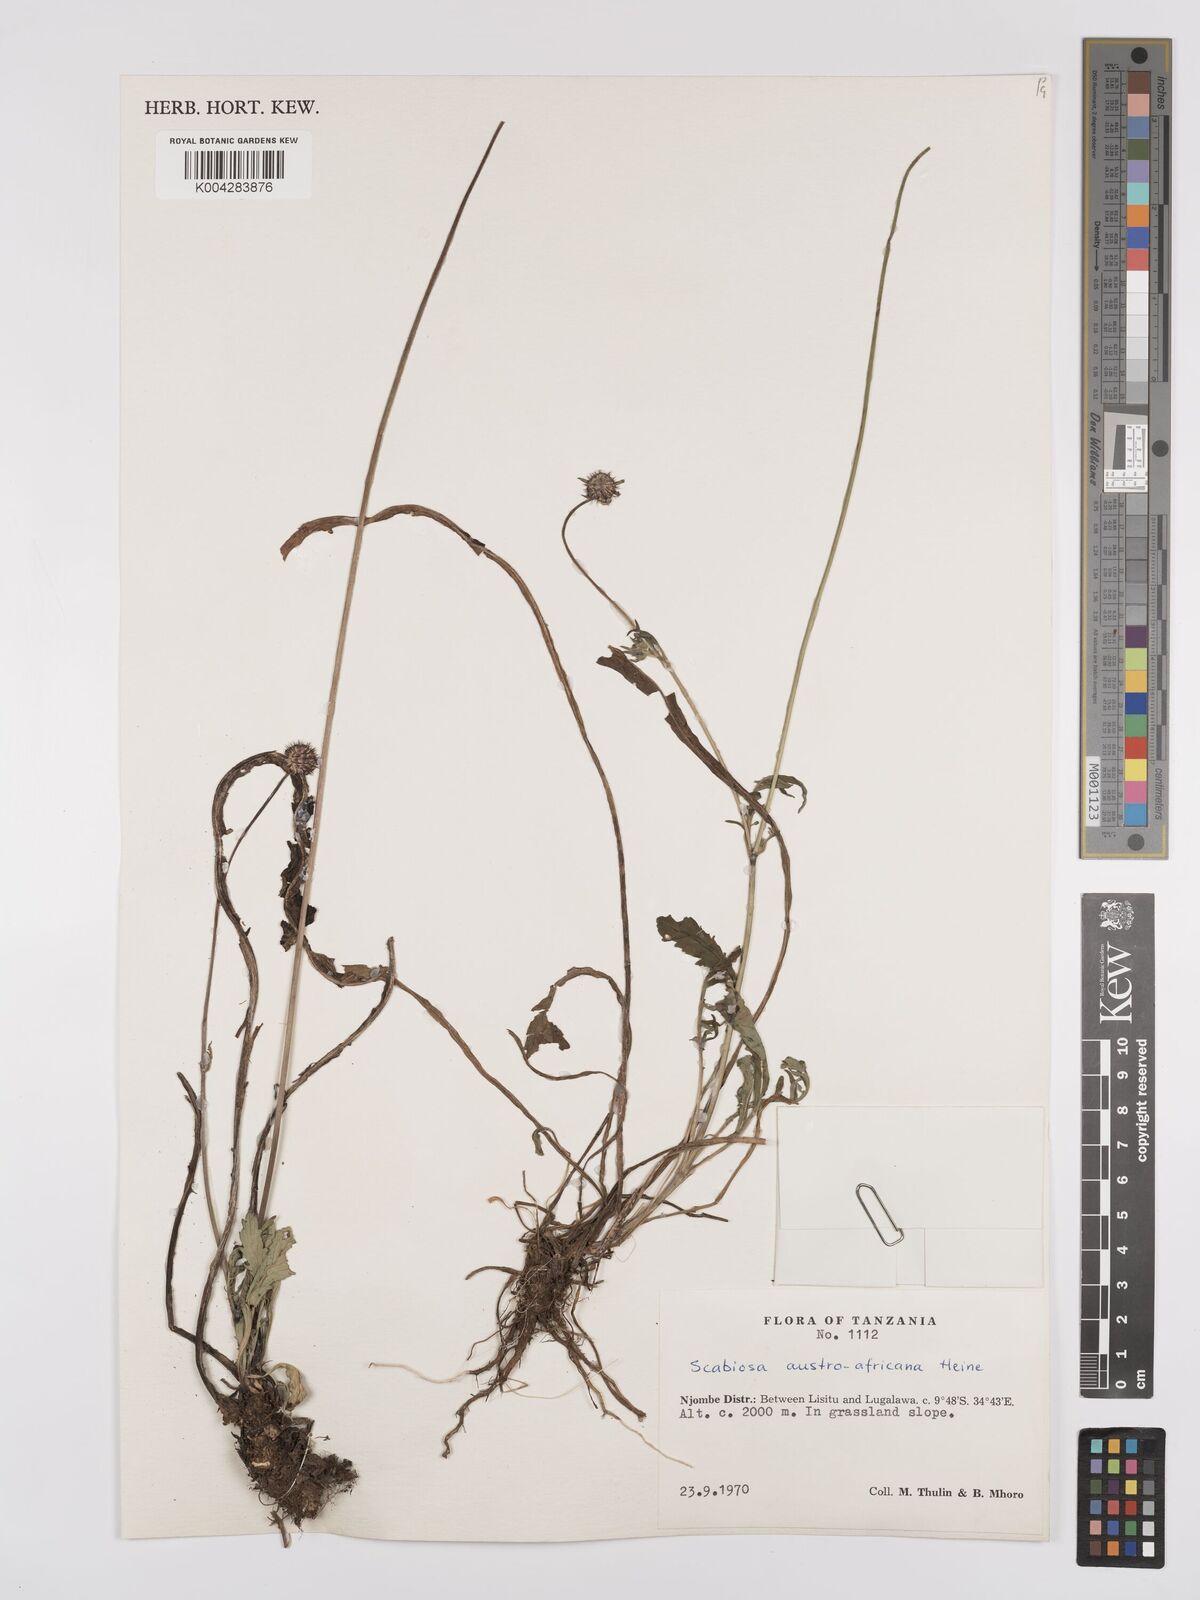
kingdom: Plantae
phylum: Tracheophyta
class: Magnoliopsida
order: Dipsacales
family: Caprifoliaceae
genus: Scabiosa
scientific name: Scabiosa austroafricana
